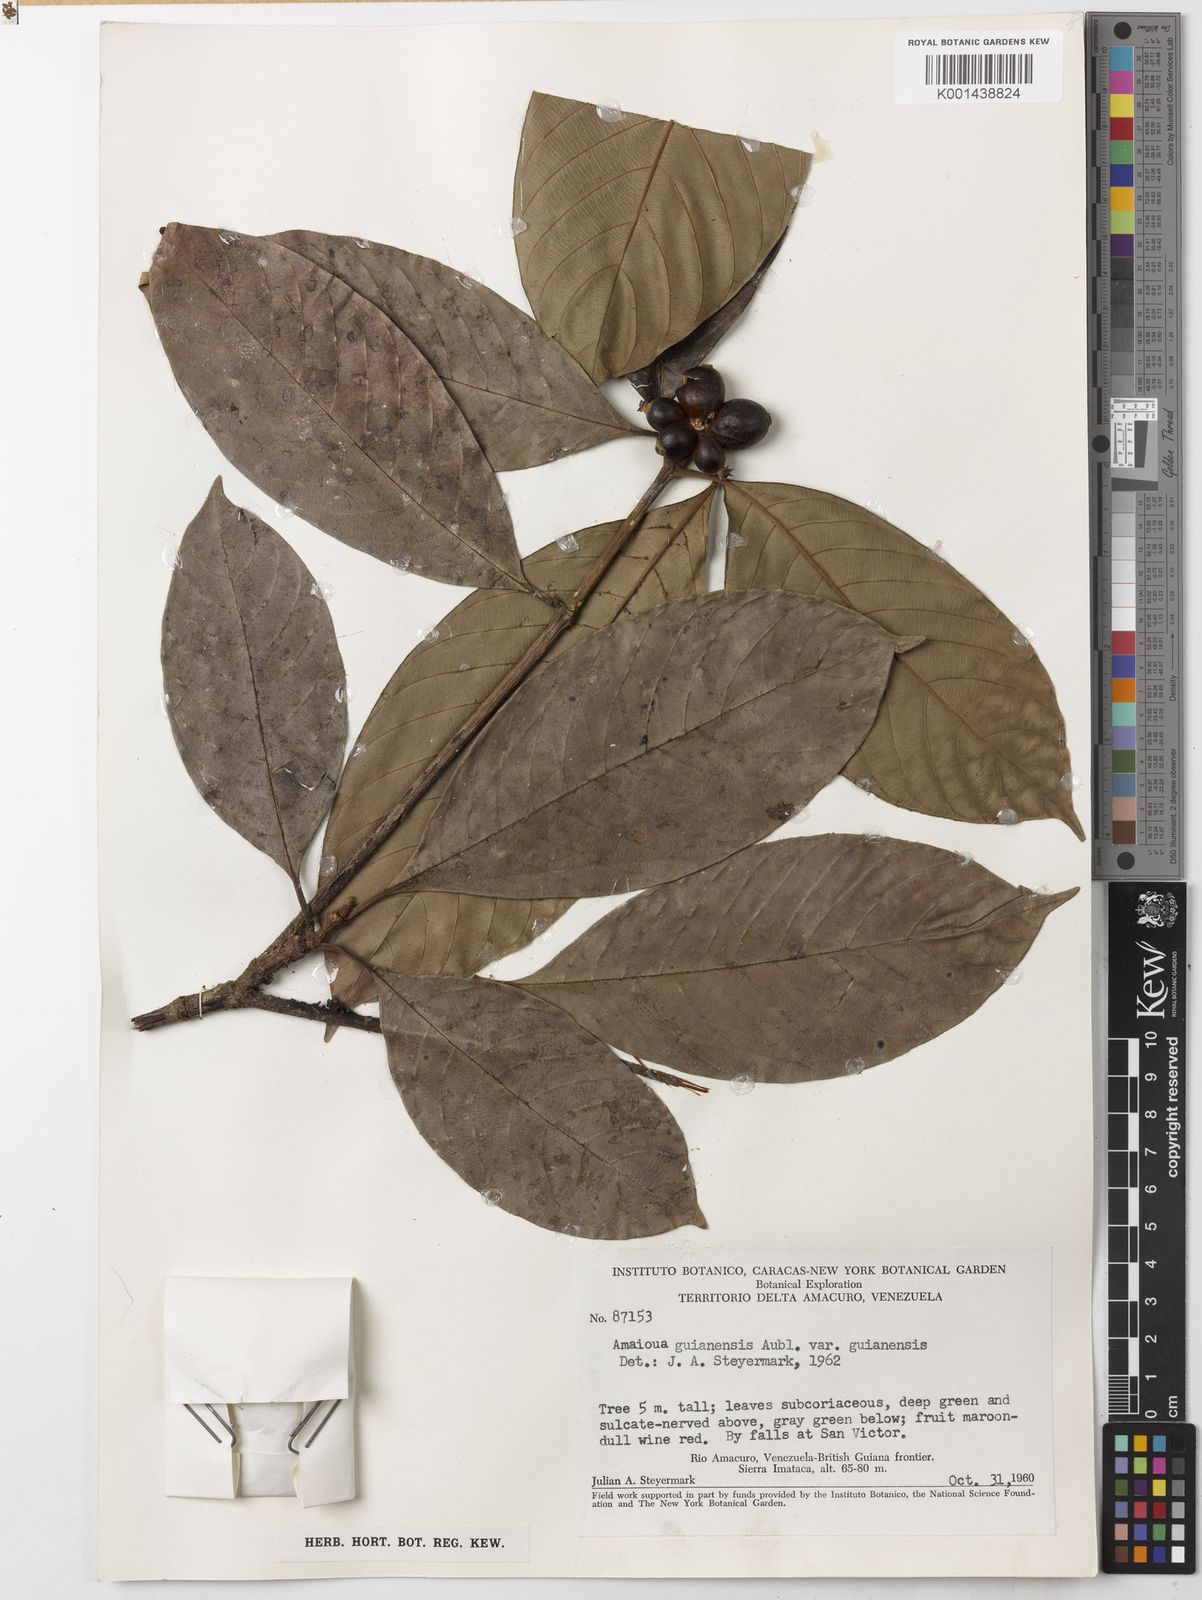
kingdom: Plantae
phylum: Tracheophyta
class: Magnoliopsida
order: Gentianales
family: Rubiaceae
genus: Amaioua
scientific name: Amaioua guianensis
